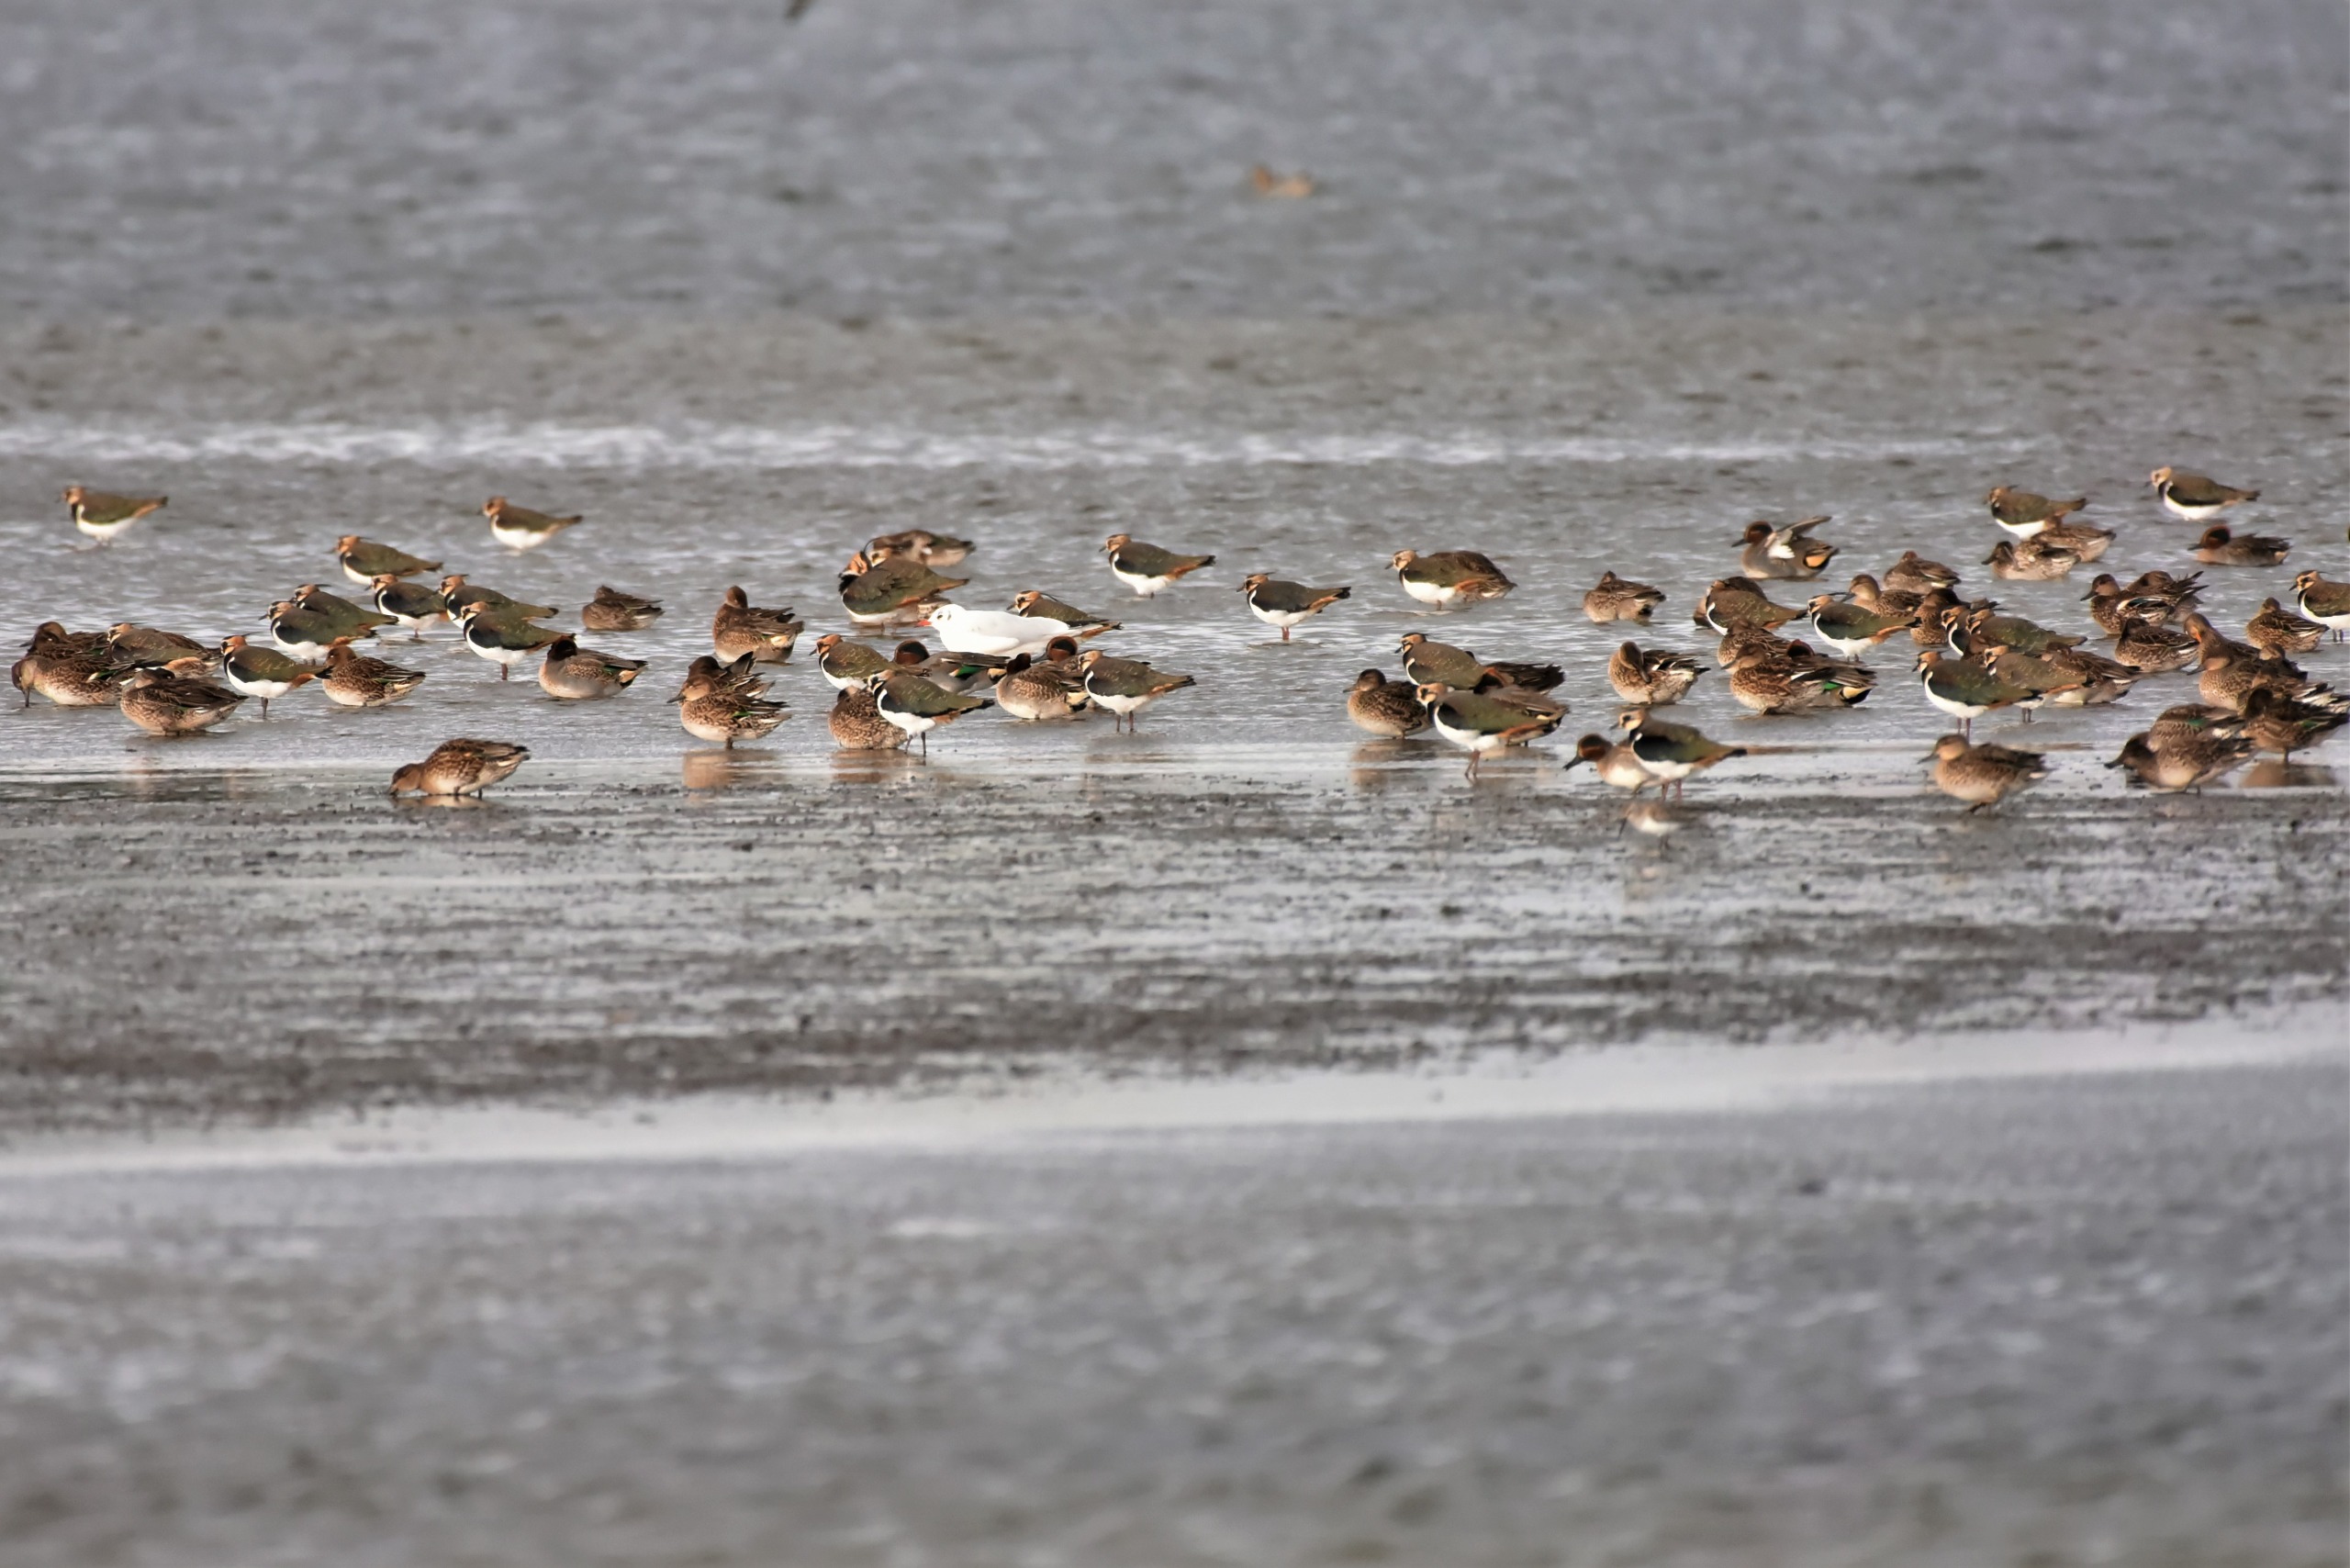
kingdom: Animalia
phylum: Chordata
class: Aves
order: Charadriiformes
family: Charadriidae
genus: Vanellus
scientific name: Vanellus vanellus
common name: Vibe
